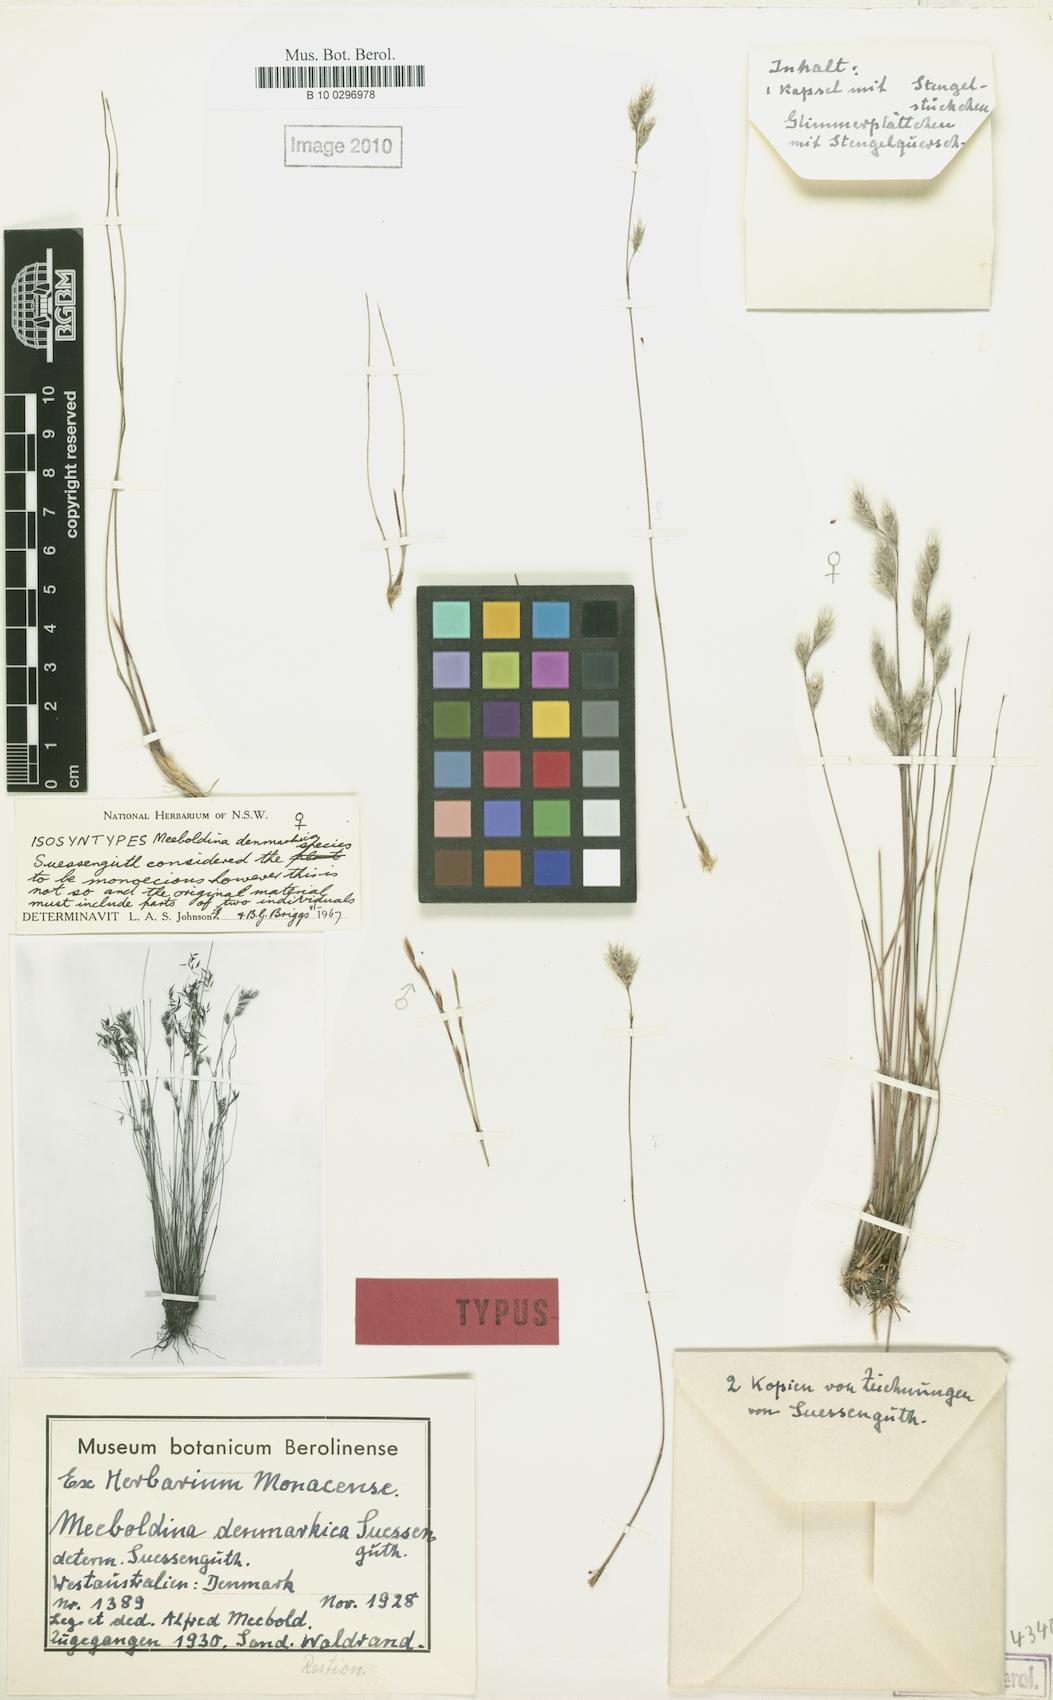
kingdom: Plantae
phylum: Tracheophyta
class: Liliopsida
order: Poales
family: Restionaceae
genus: Leptocarpus
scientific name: Leptocarpus denmarkicus
